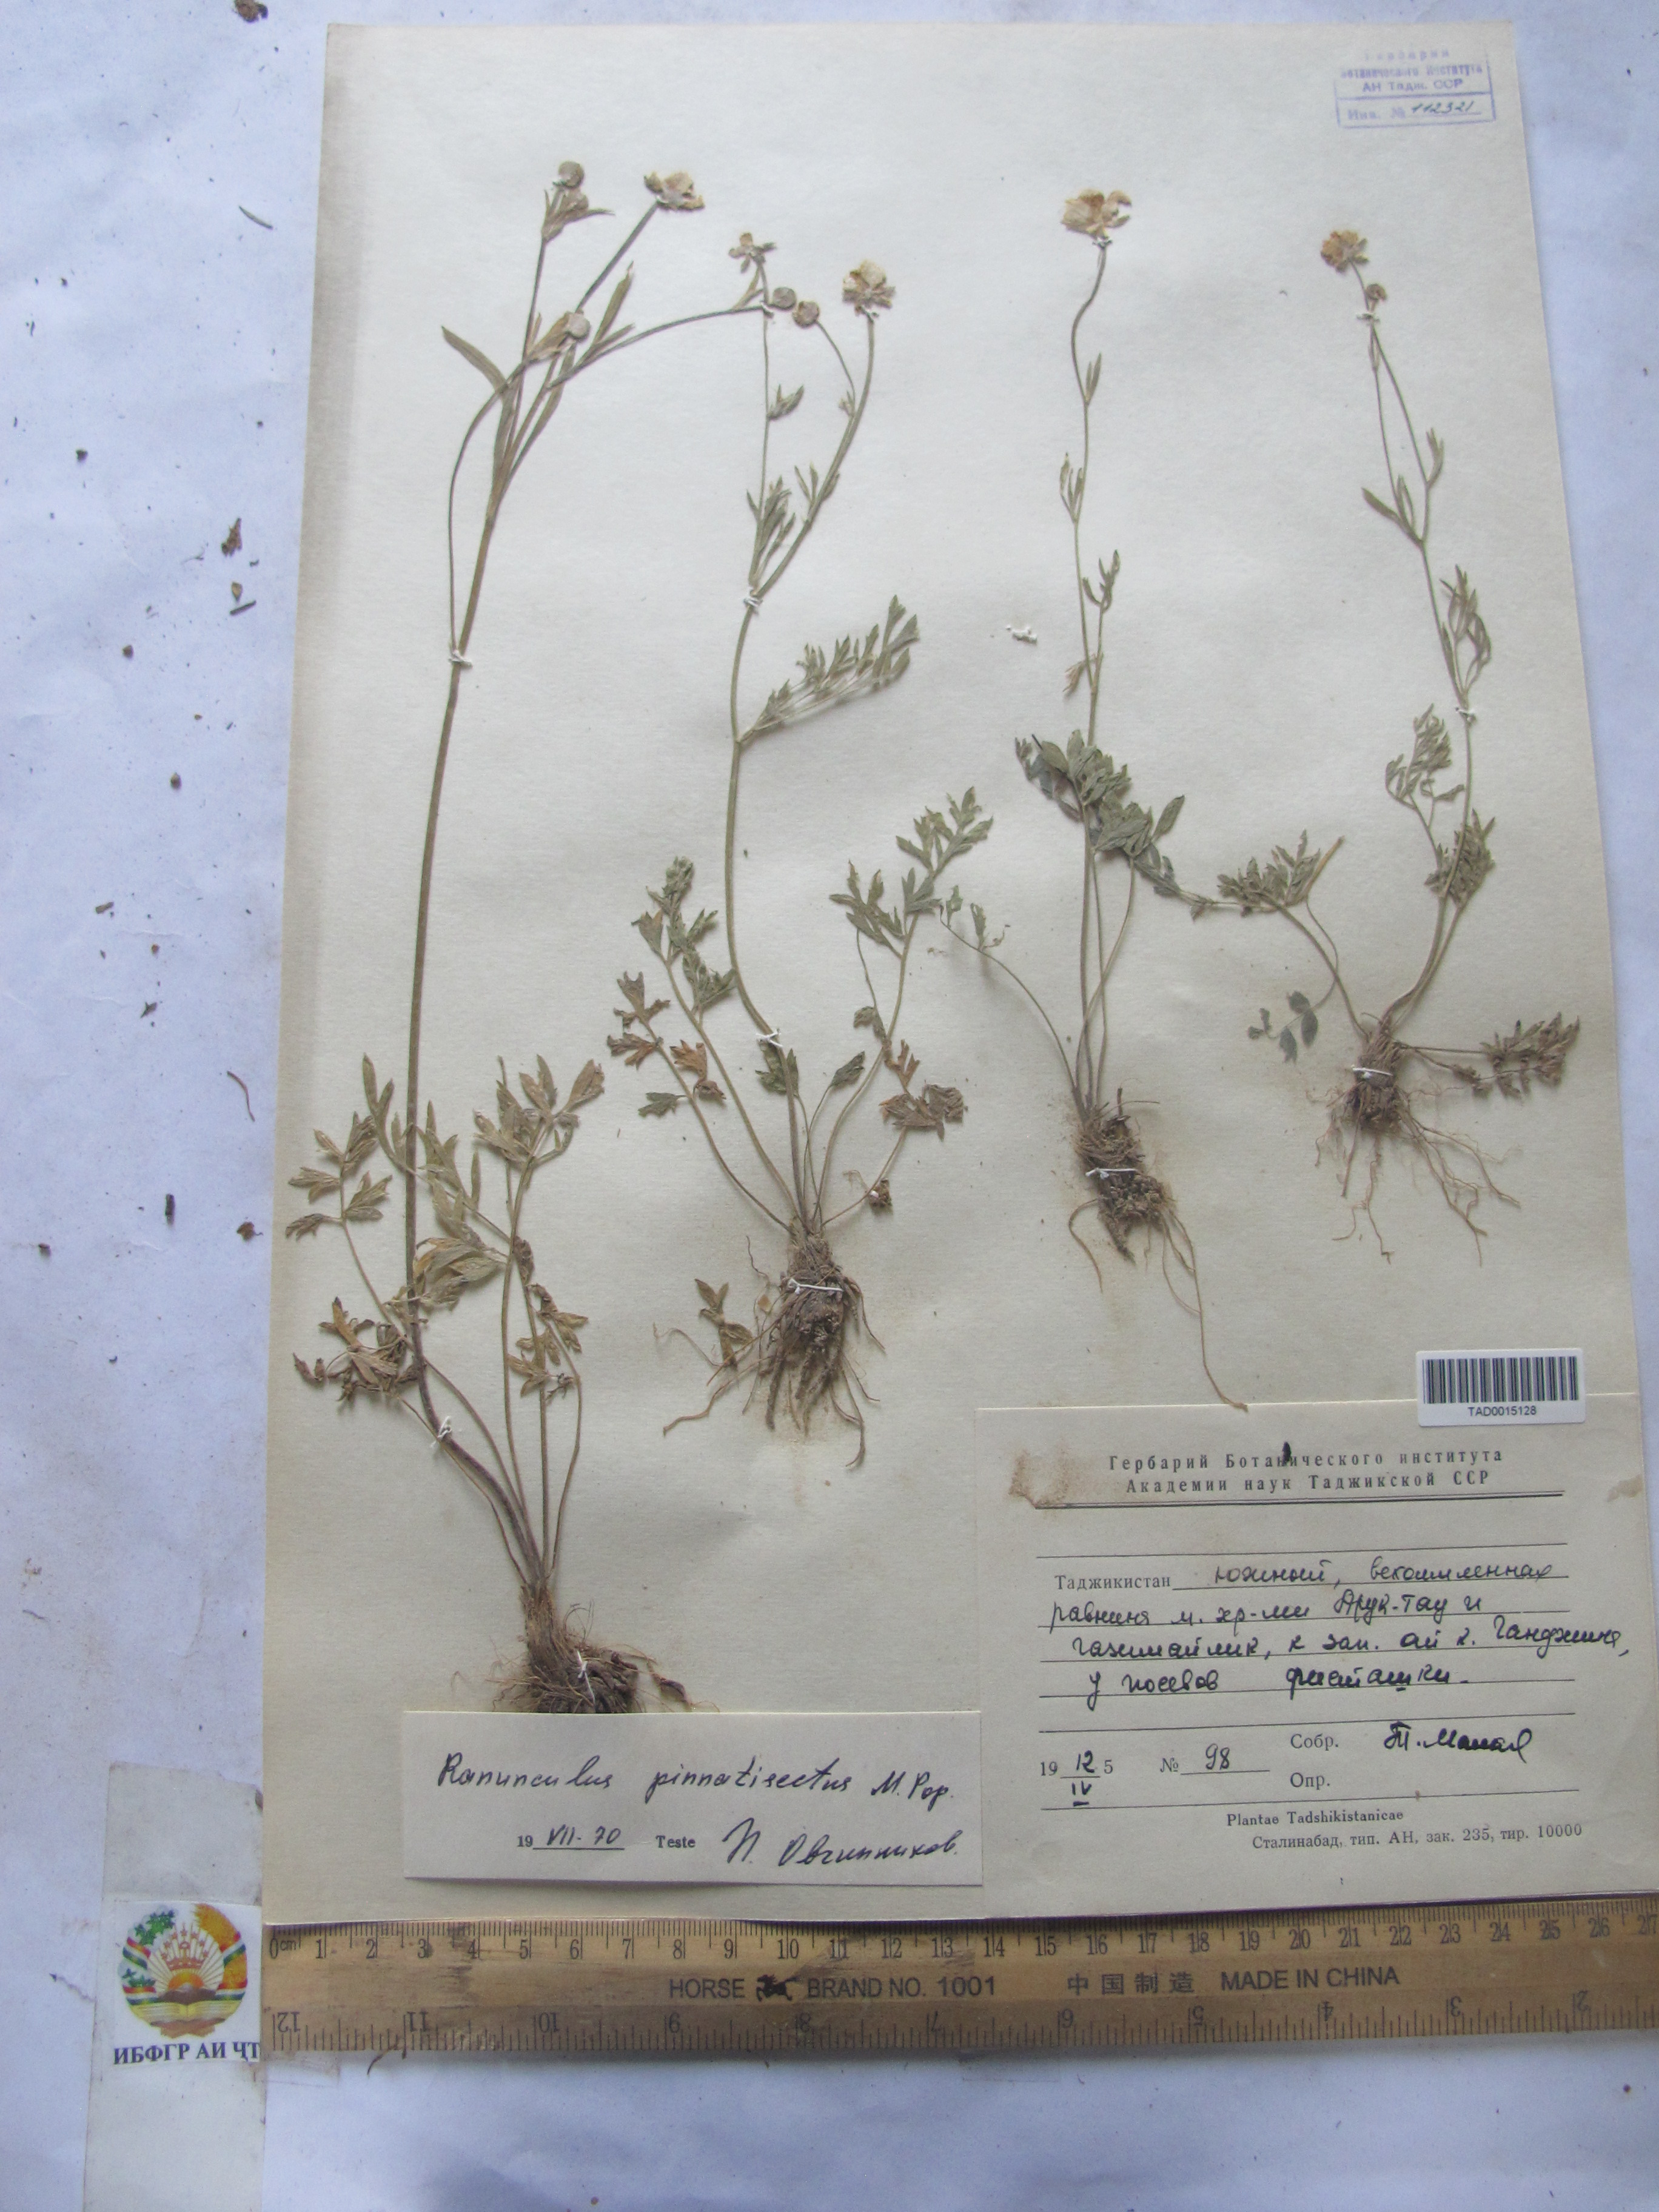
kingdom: Plantae
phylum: Tracheophyta
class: Magnoliopsida
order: Ranunculales
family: Ranunculaceae
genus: Ranunculus
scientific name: Ranunculus pinnatisectus
